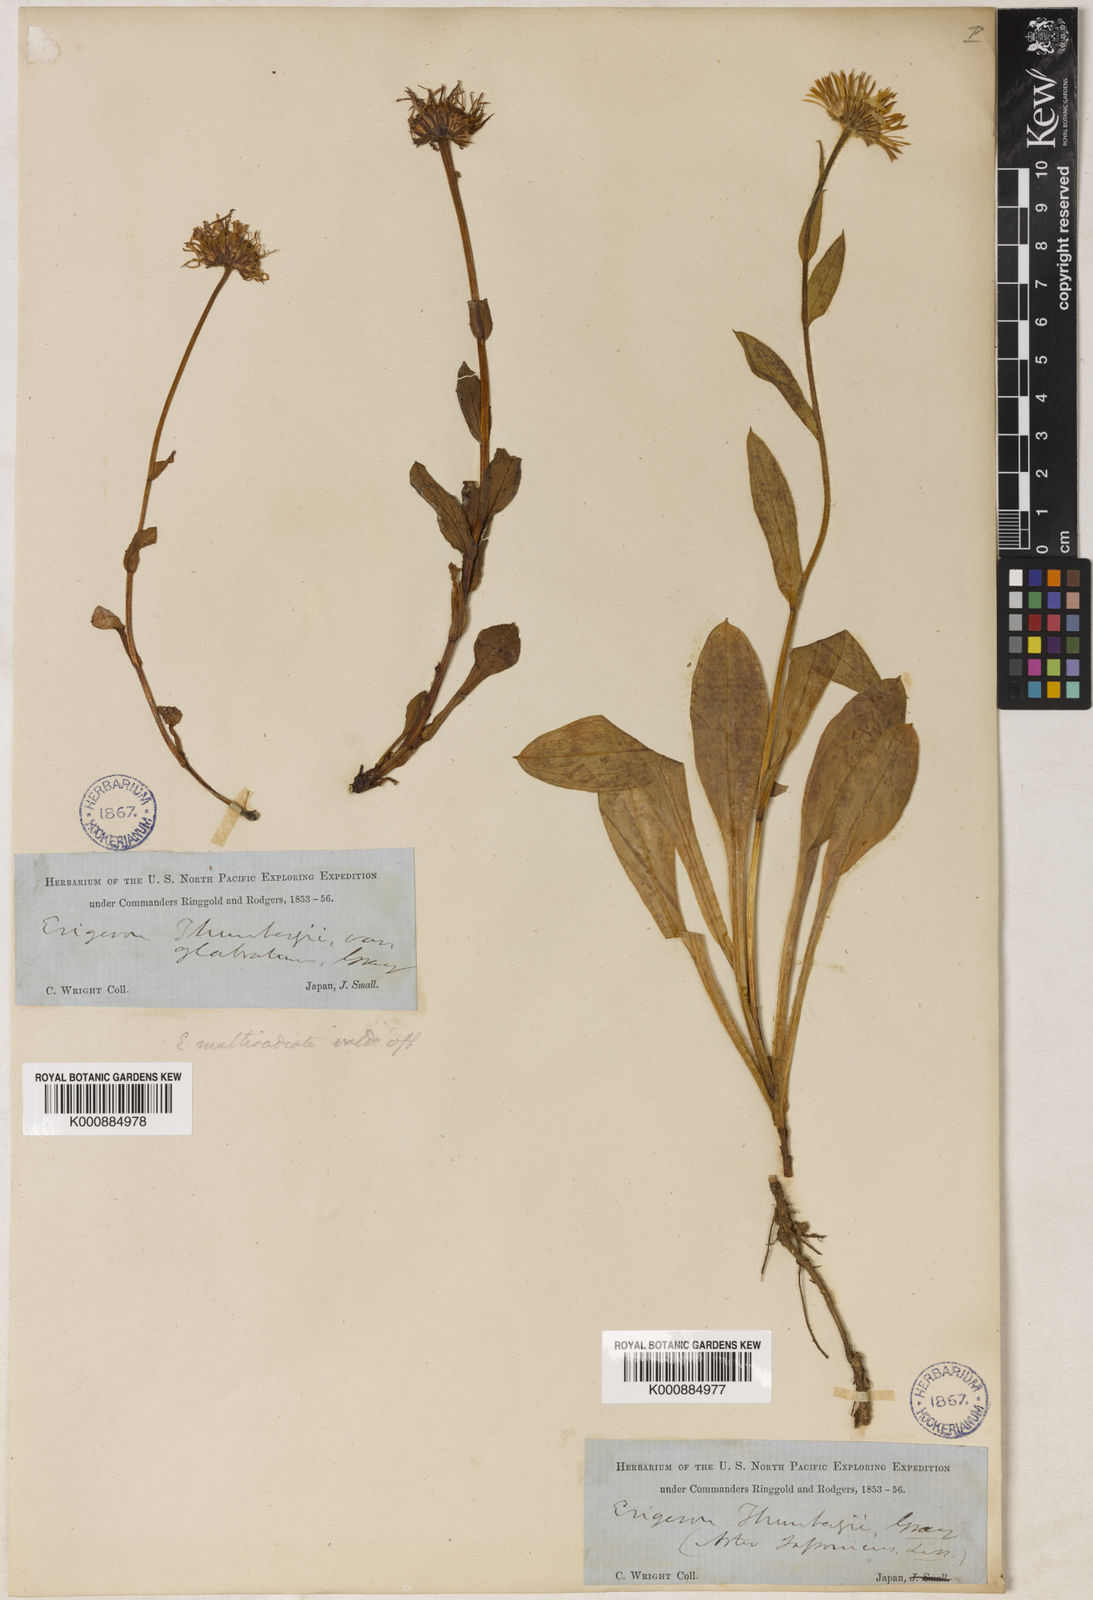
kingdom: Plantae
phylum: Tracheophyta
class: Magnoliopsida
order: Asterales
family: Asteraceae
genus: Erigeron
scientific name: Erigeron
